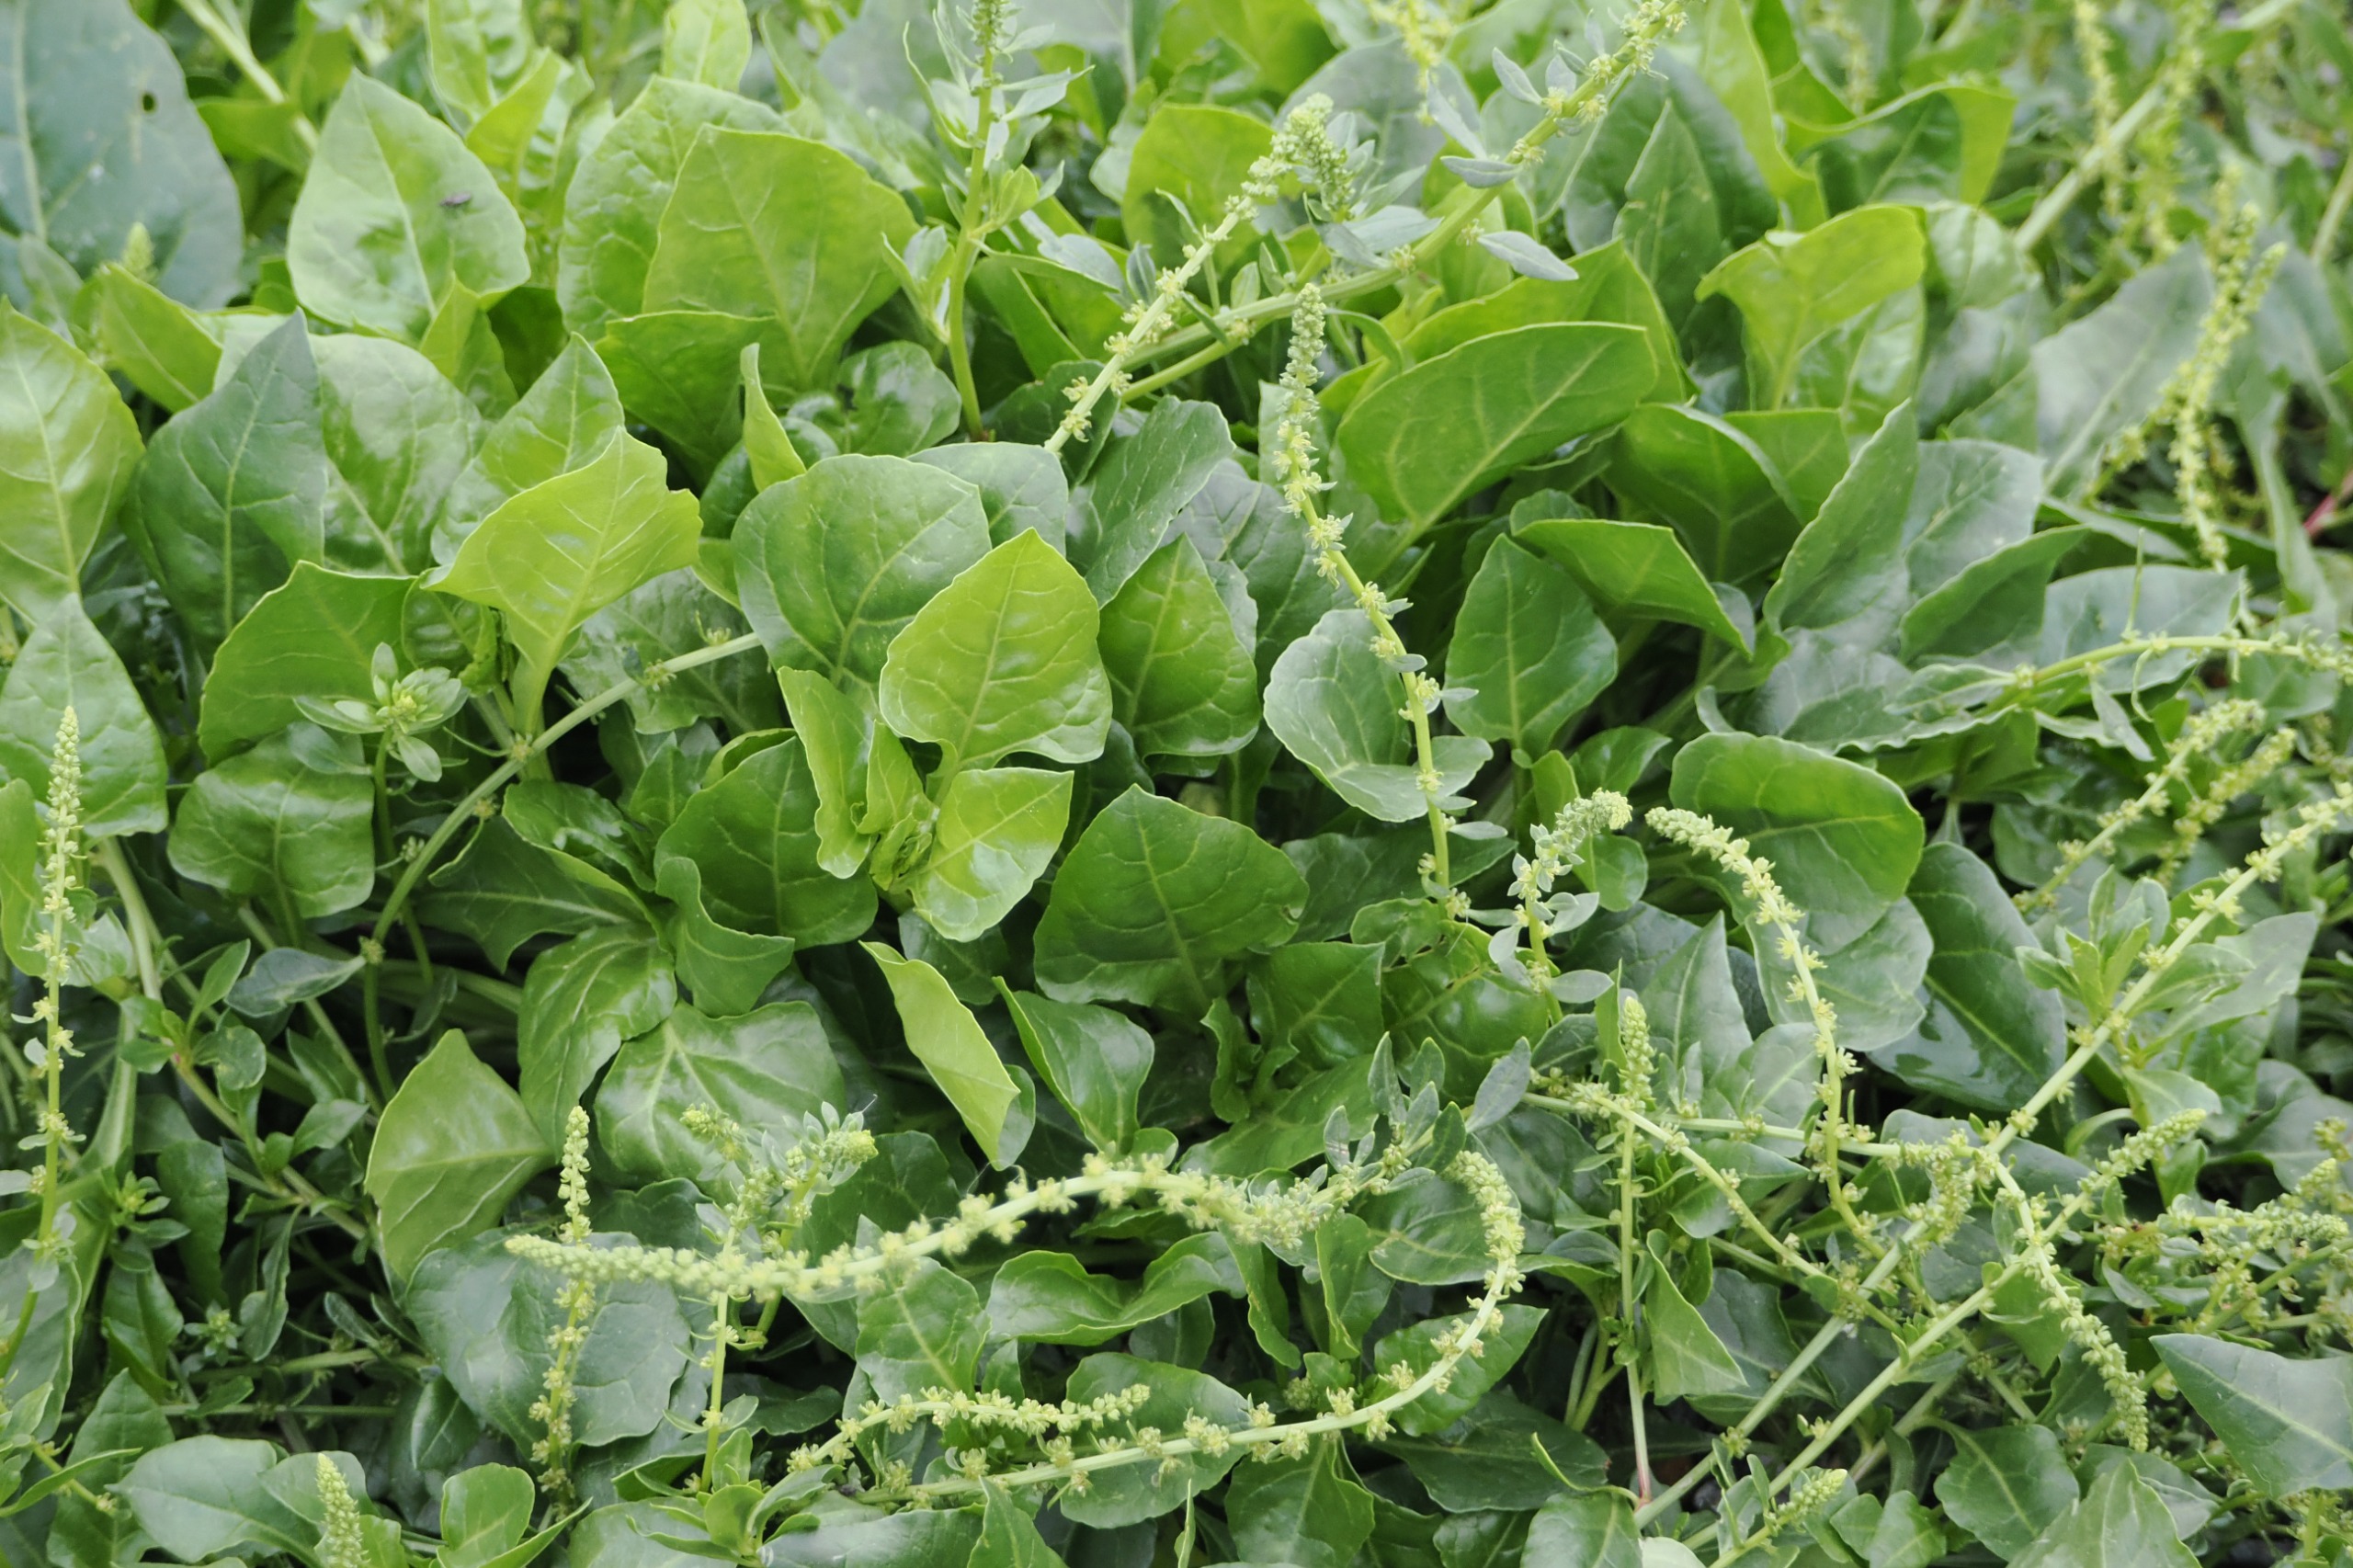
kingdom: Plantae
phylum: Tracheophyta
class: Magnoliopsida
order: Caryophyllales
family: Amaranthaceae
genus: Beta
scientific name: Beta maritima
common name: Strand-bede
